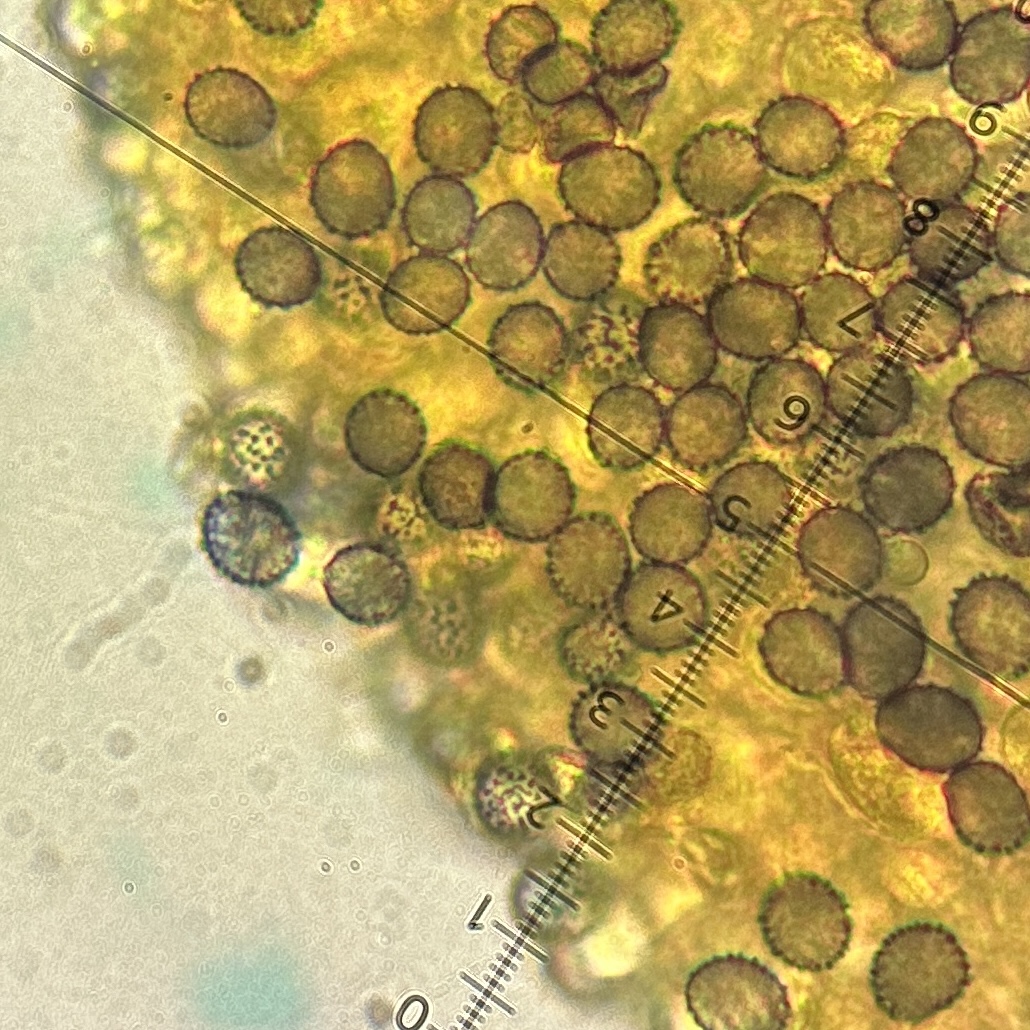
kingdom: Fungi
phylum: Basidiomycota
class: Agaricomycetes
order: Russulales
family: Russulaceae
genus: Russula
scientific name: Russula
